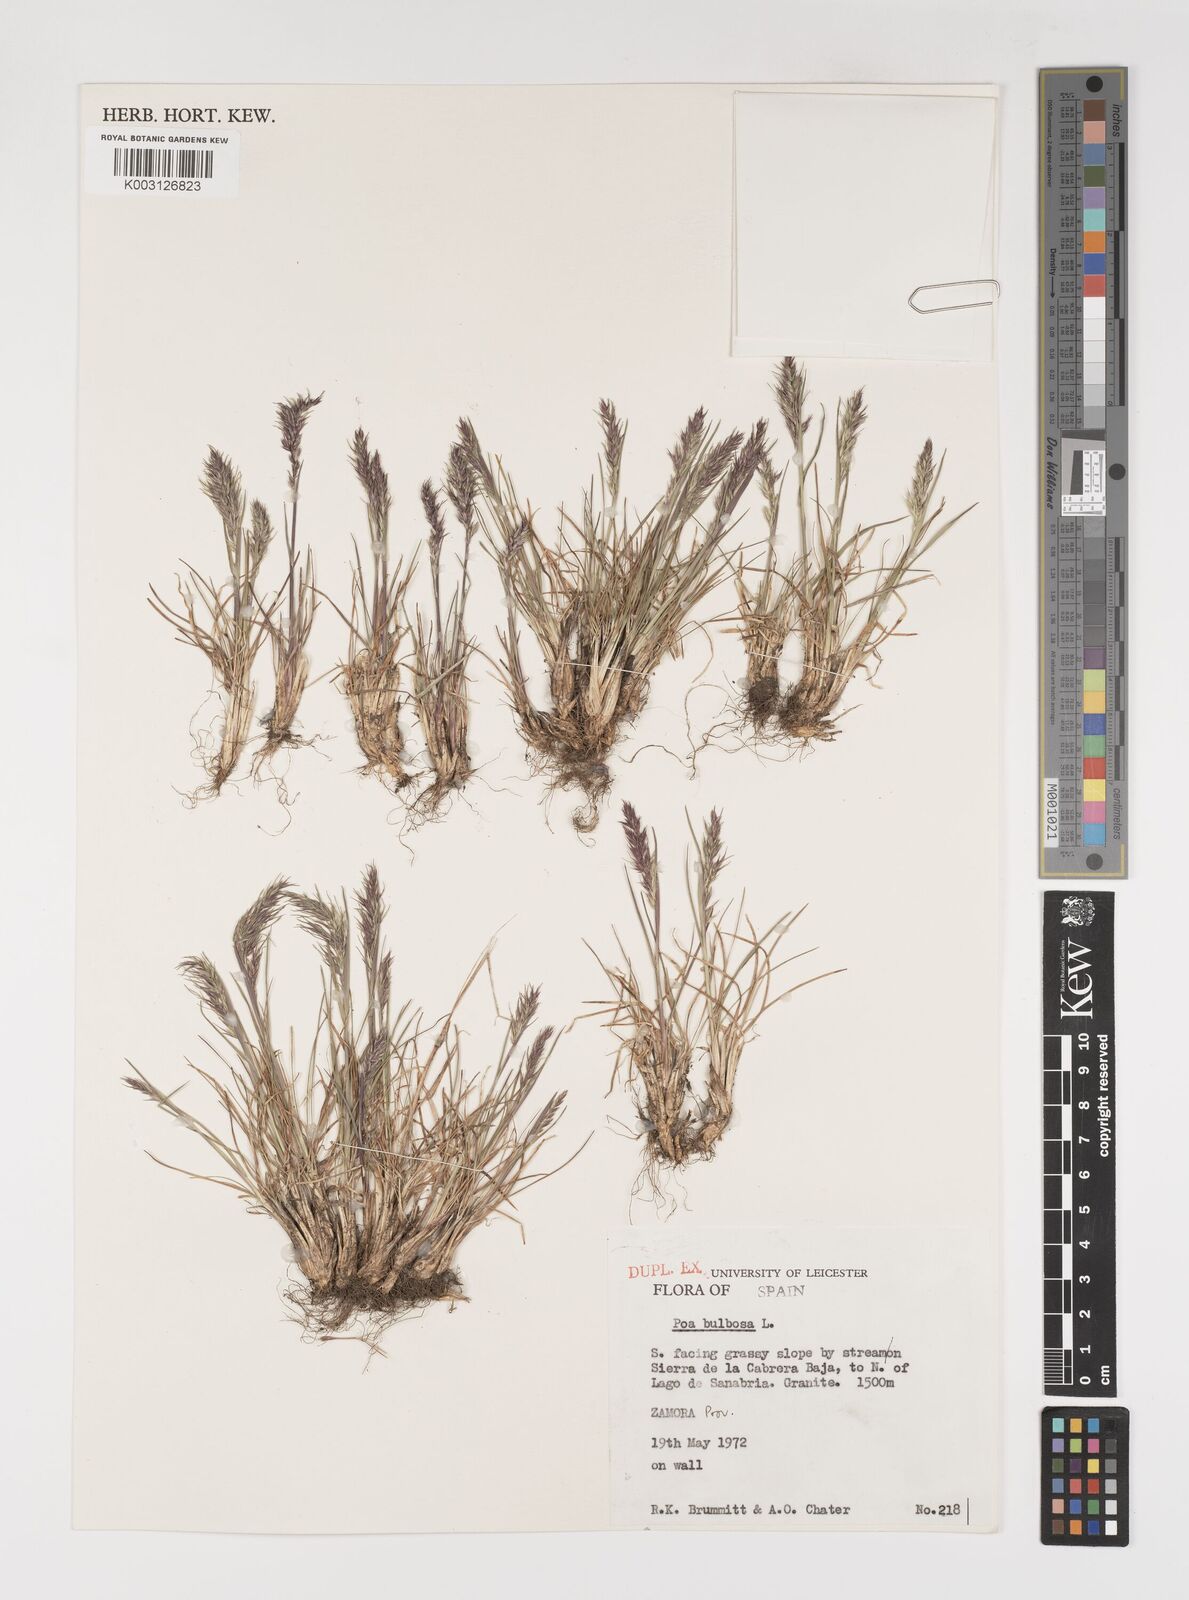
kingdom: Plantae
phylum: Tracheophyta
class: Liliopsida
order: Poales
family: Poaceae
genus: Poa
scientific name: Poa bulbosa
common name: Bulbous bluegrass
